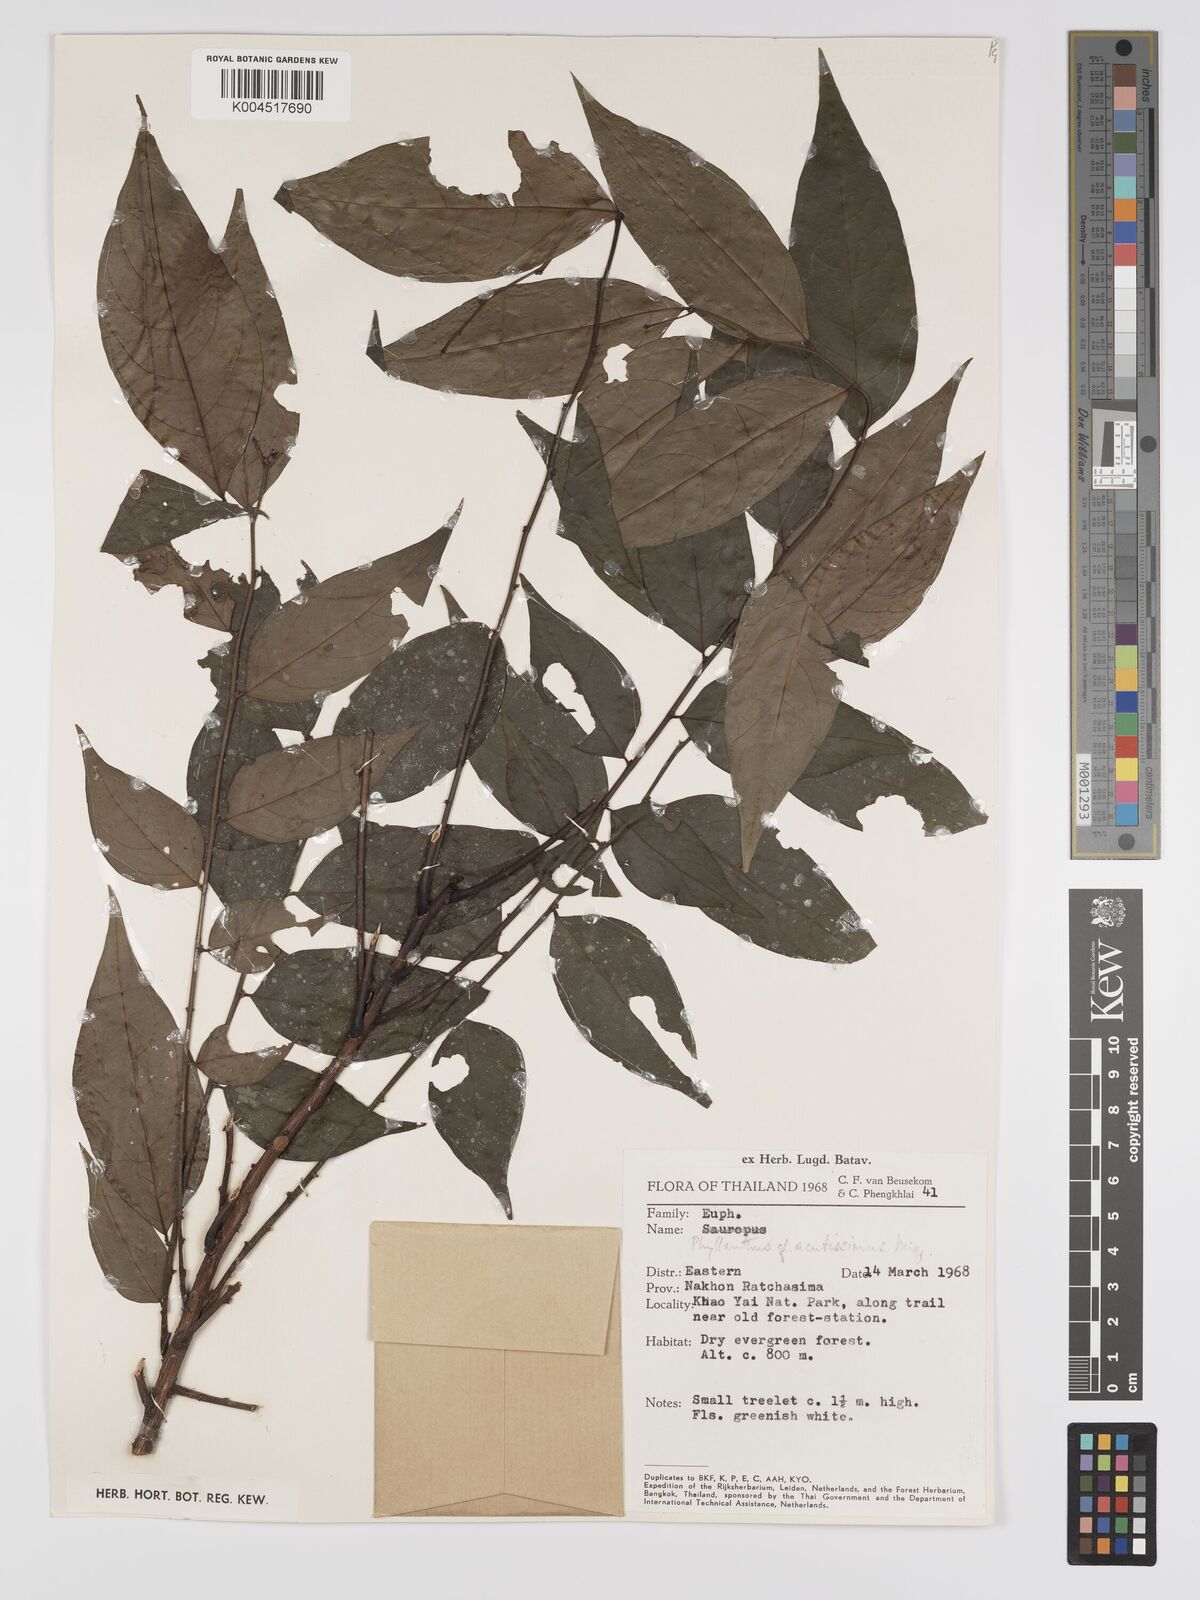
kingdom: Plantae
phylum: Tracheophyta
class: Magnoliopsida
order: Malpighiales
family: Phyllanthaceae
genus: Phyllanthus
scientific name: Phyllanthus acutissimus
